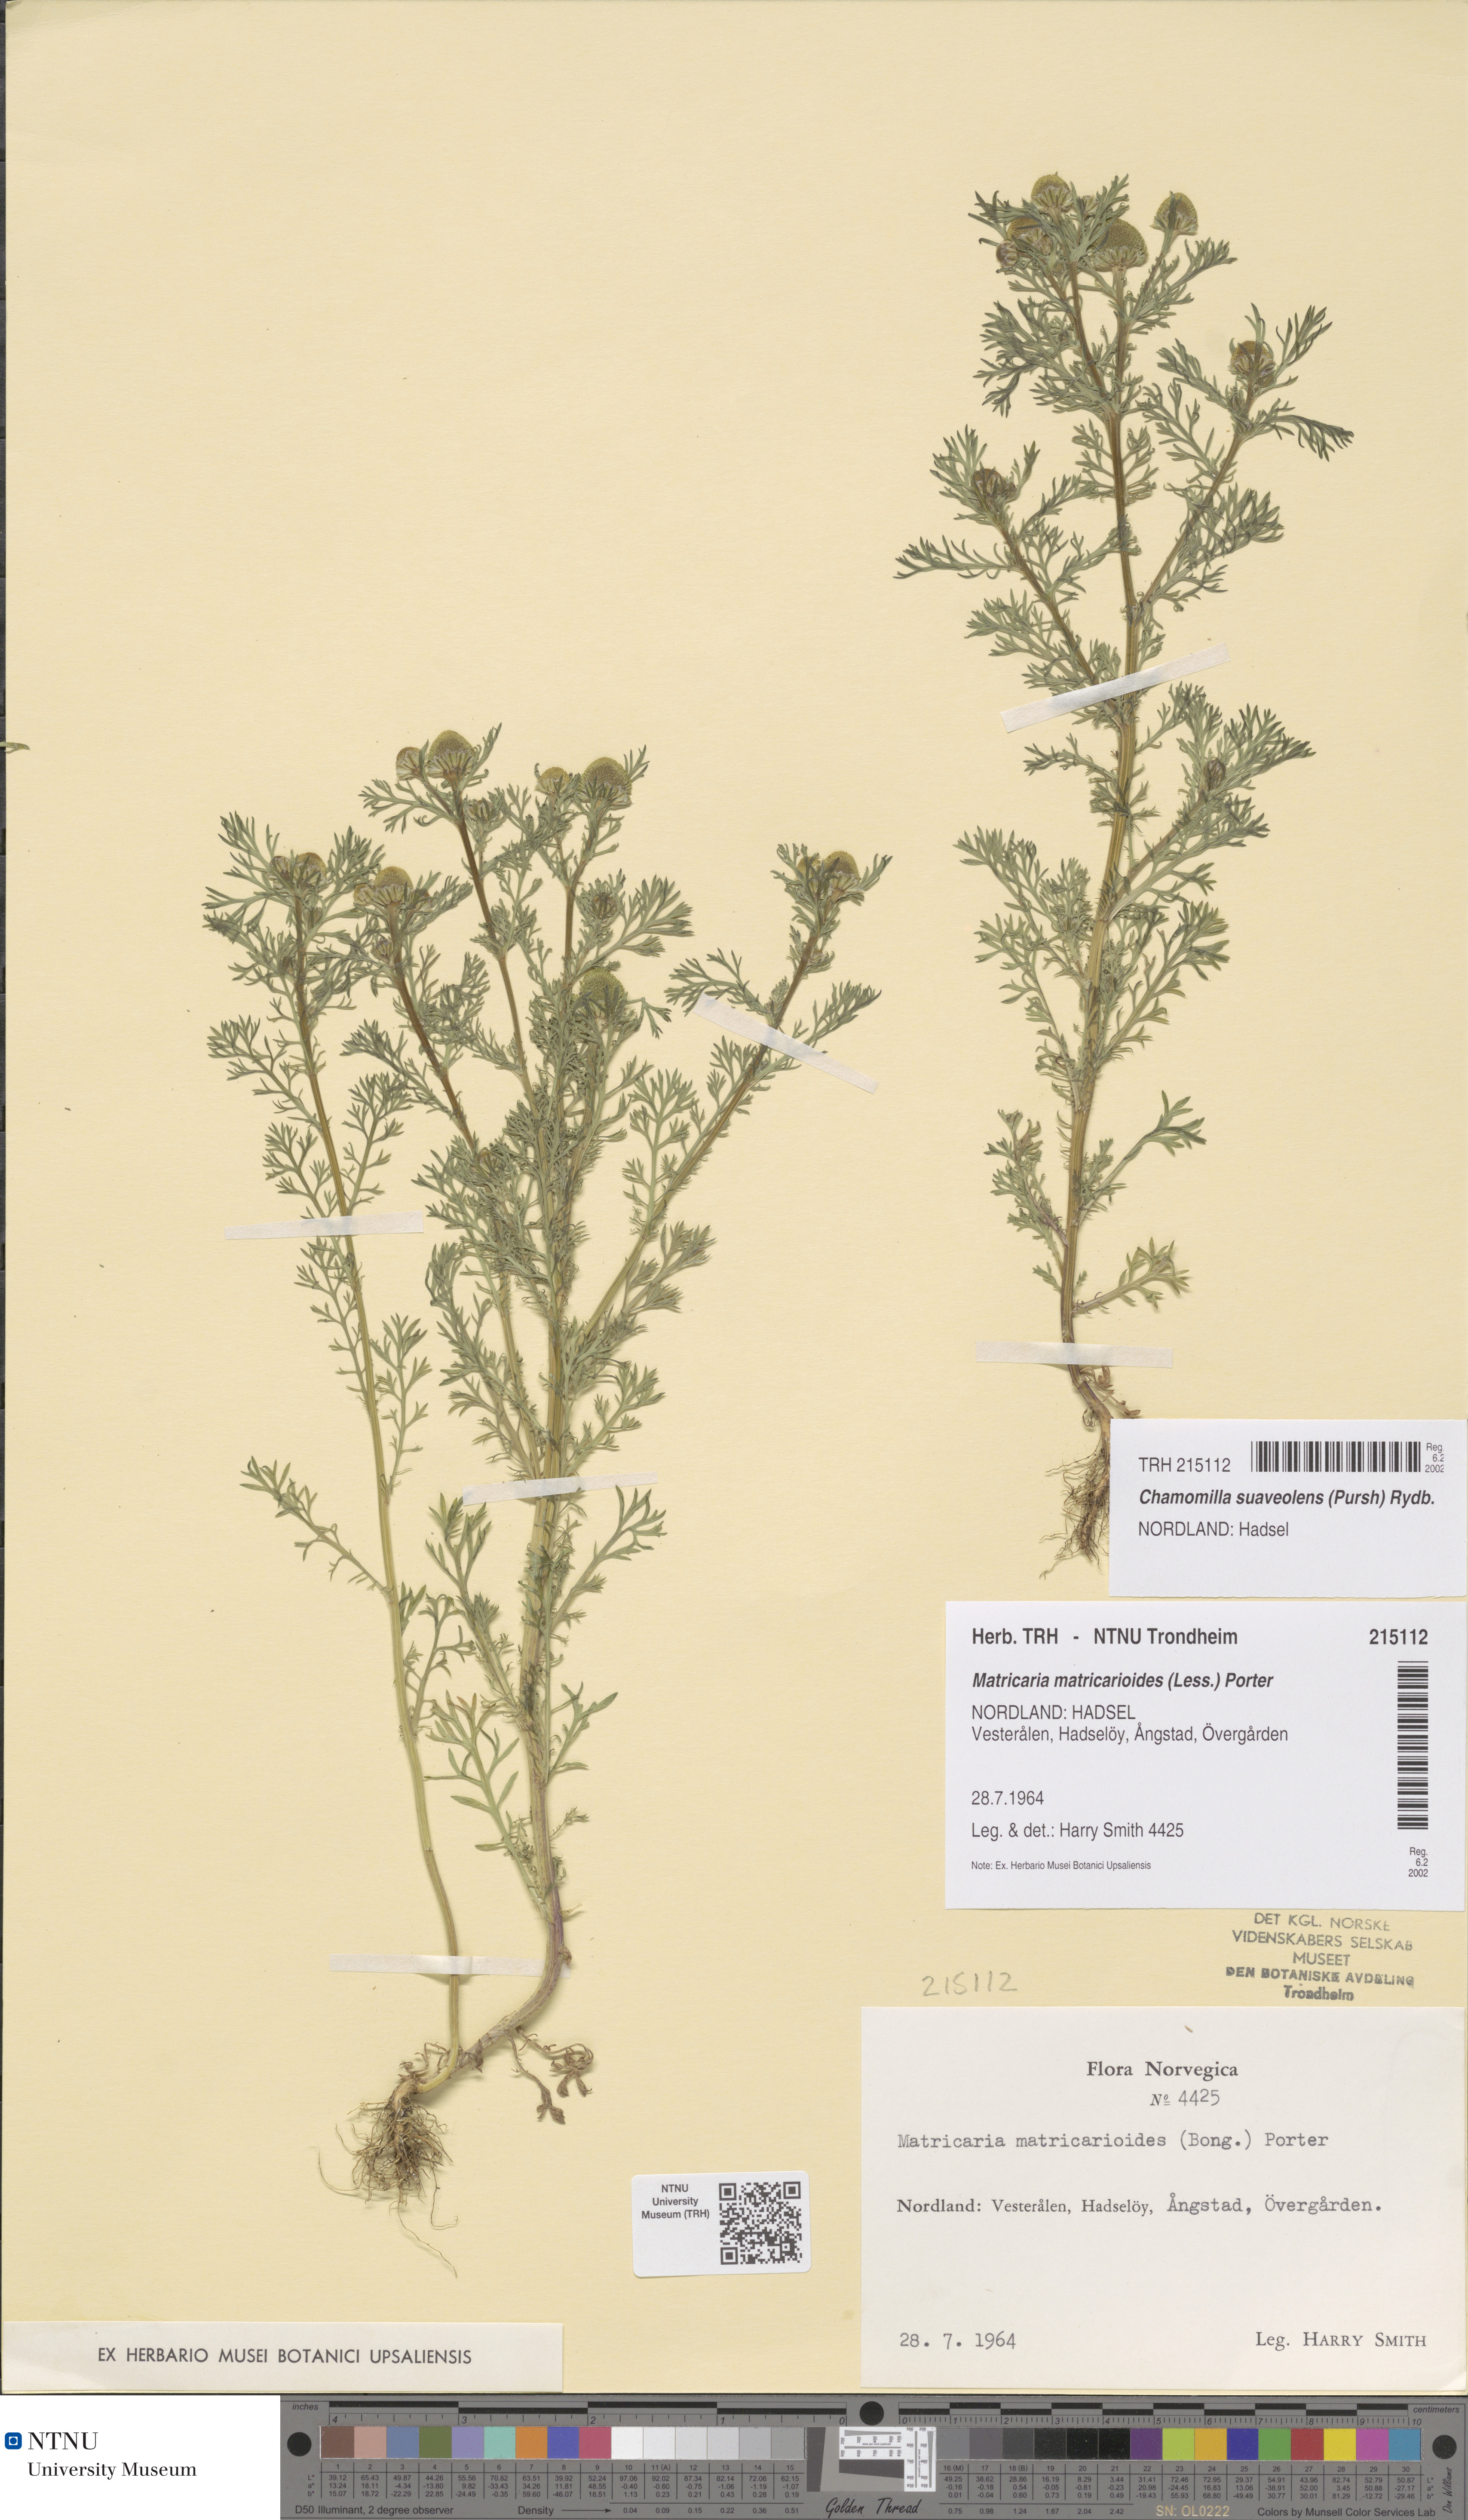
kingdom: Plantae
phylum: Tracheophyta
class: Magnoliopsida
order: Asterales
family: Asteraceae
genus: Matricaria
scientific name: Matricaria discoidea
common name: Disc mayweed
